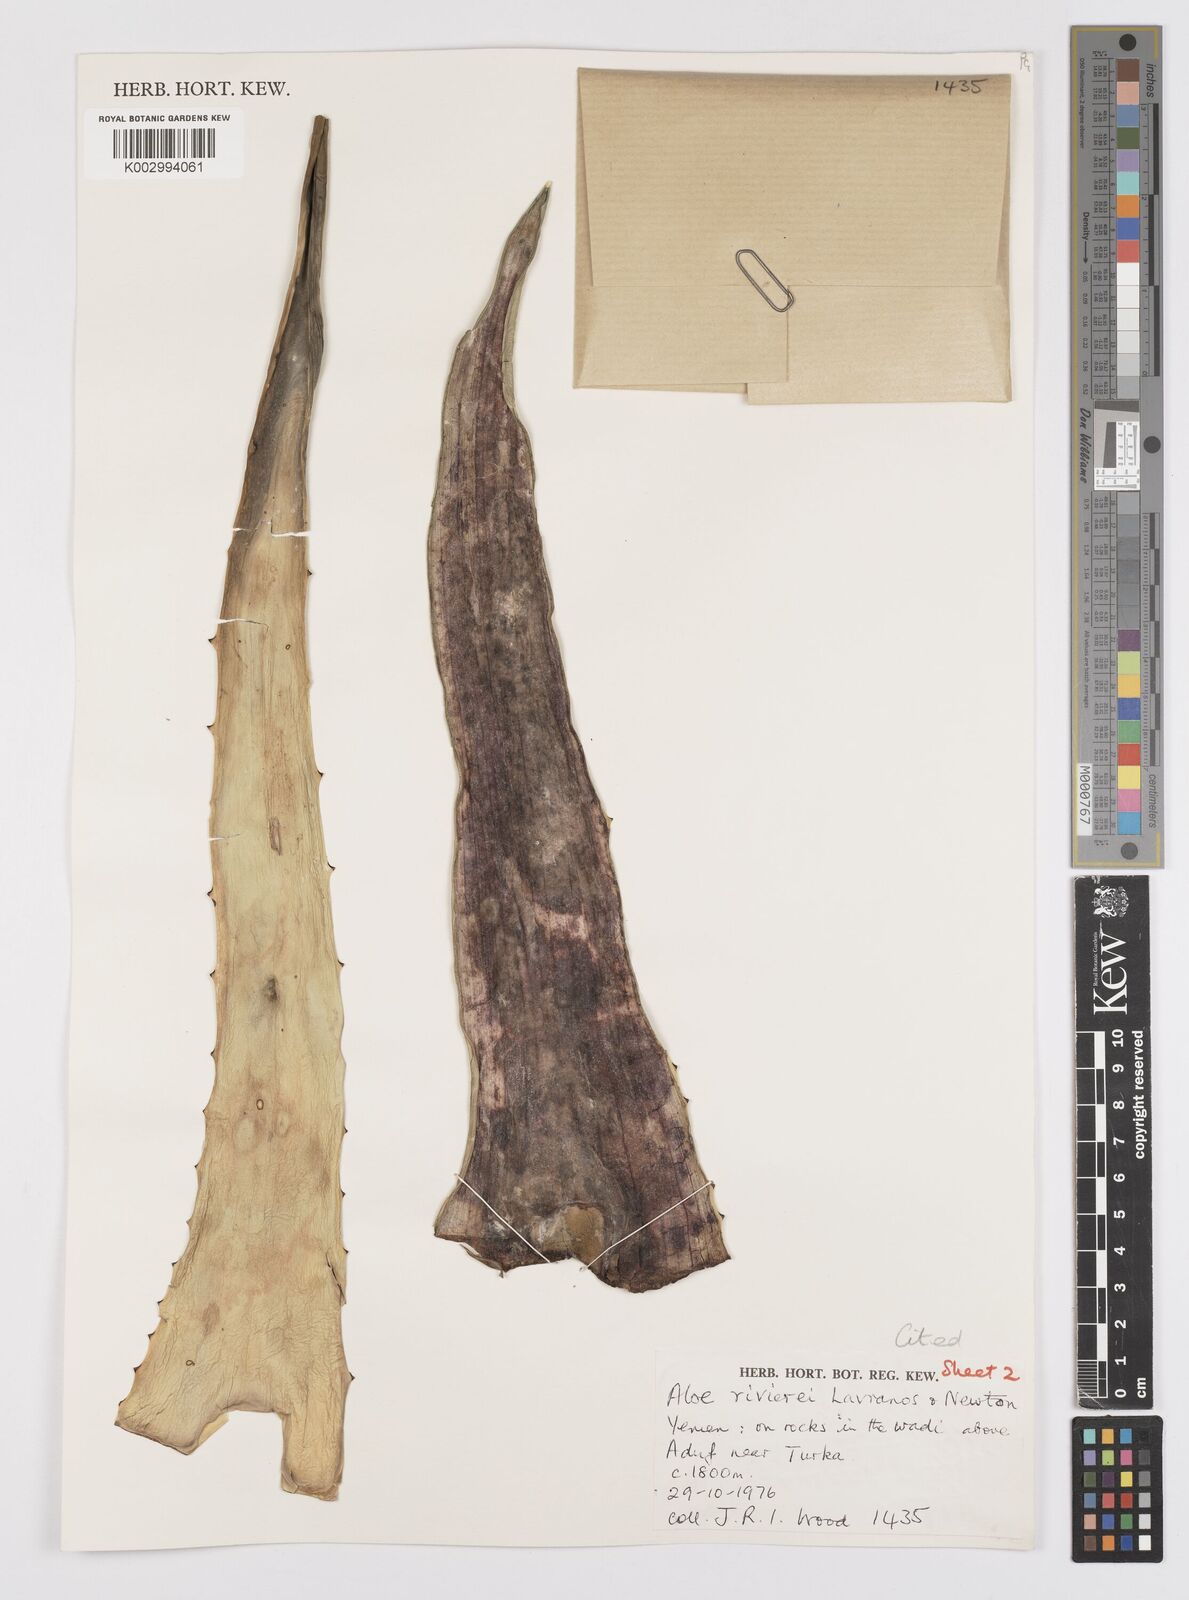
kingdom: Plantae
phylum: Tracheophyta
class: Liliopsida
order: Asparagales
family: Asphodelaceae
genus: Aloe
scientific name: Aloe rivierei
